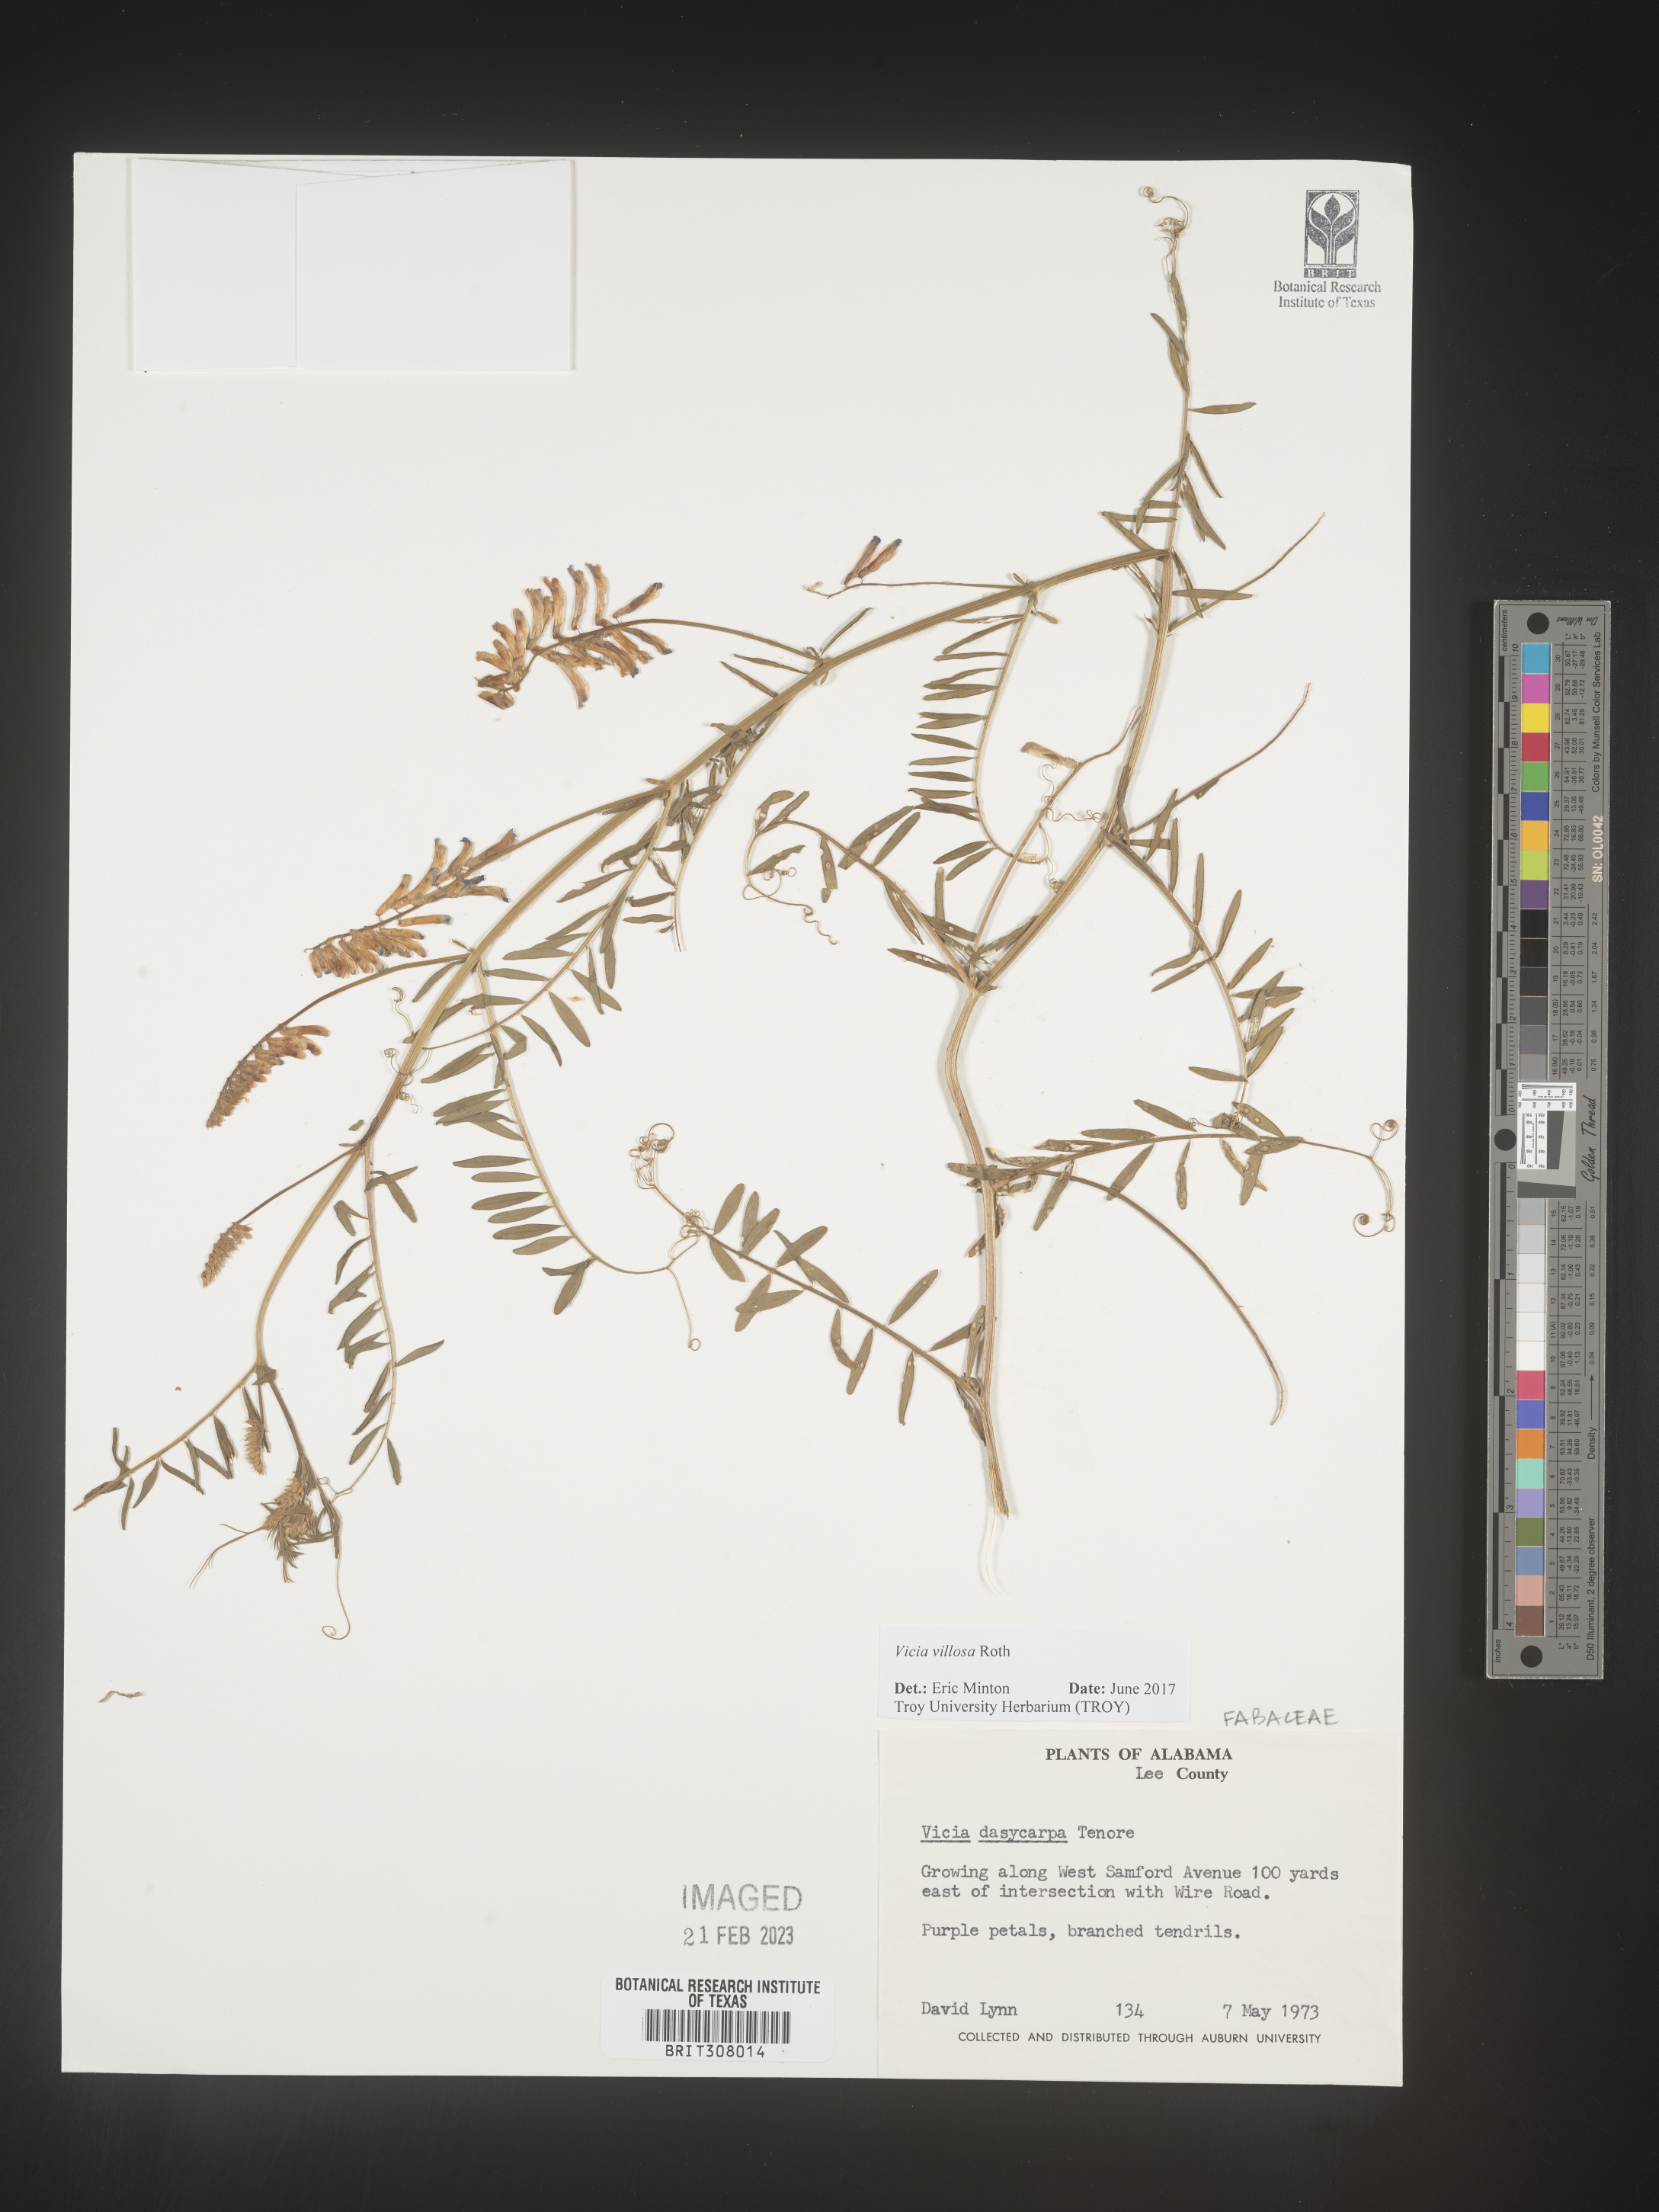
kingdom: Plantae
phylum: Tracheophyta
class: Magnoliopsida
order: Fabales
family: Fabaceae
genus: Vicia
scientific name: Vicia villosa
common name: Fodder vetch
